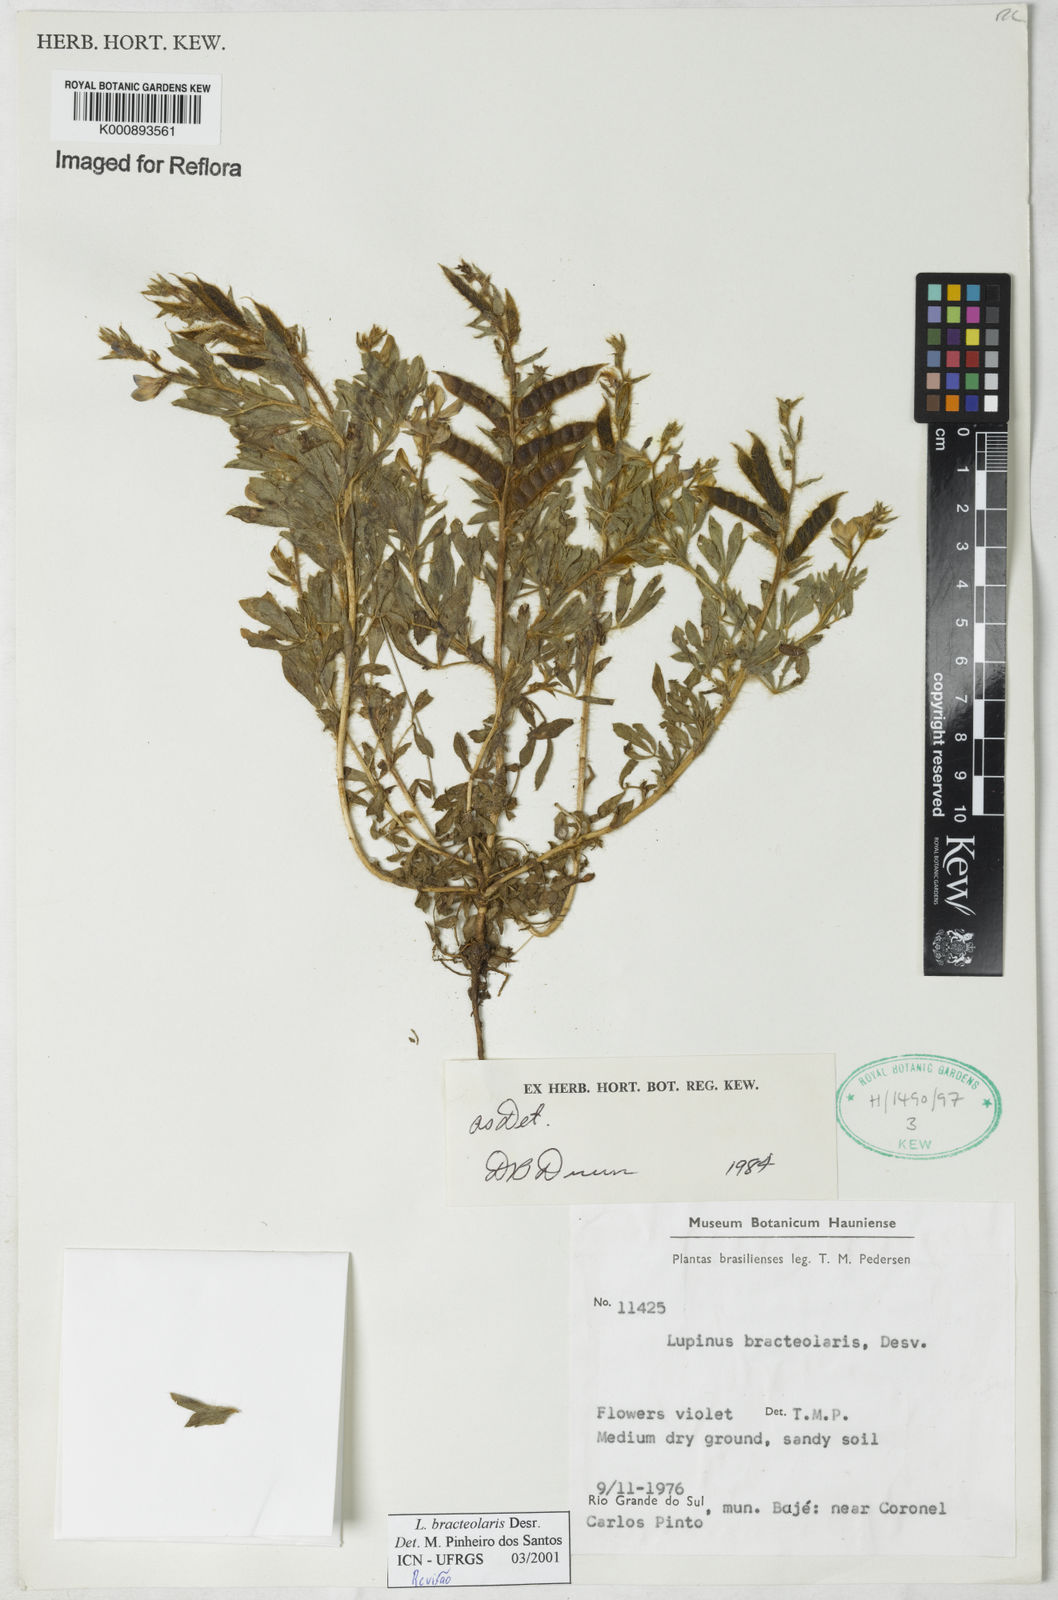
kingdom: Plantae
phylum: Tracheophyta
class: Magnoliopsida
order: Fabales
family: Fabaceae
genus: Lupinus
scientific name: Lupinus bracteolaris
